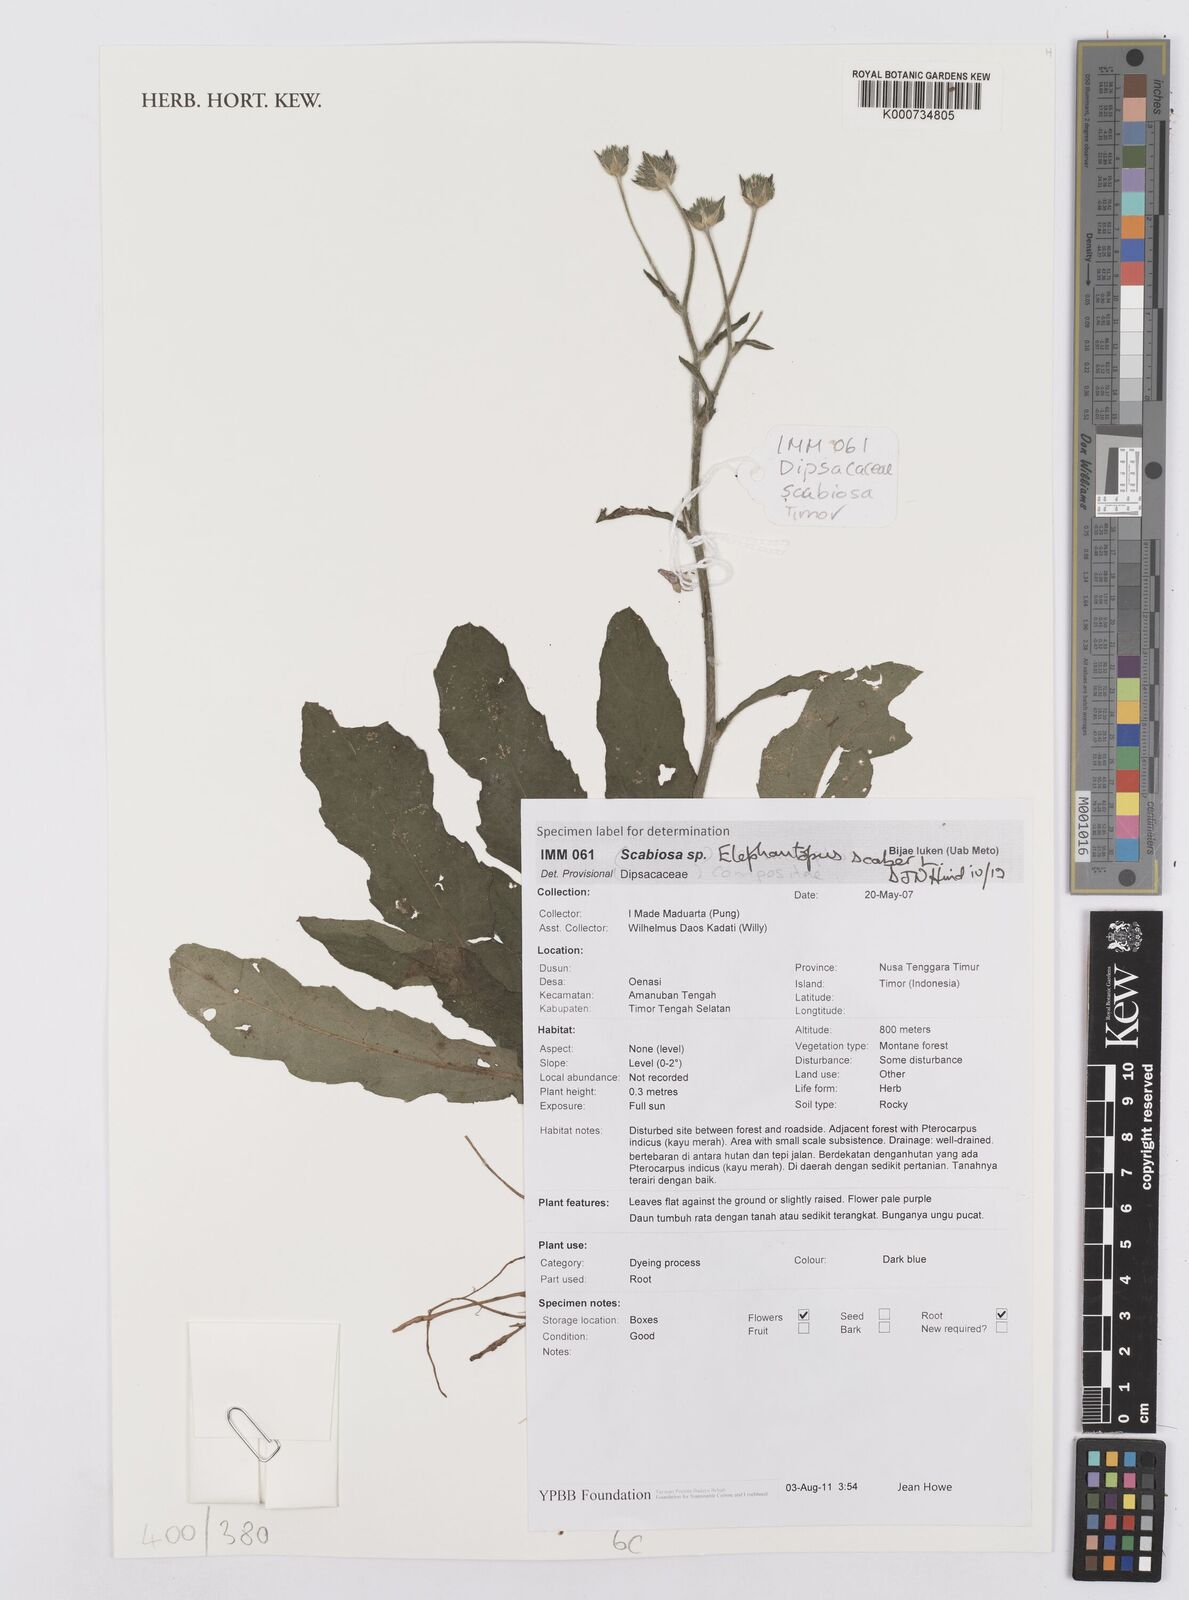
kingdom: Plantae
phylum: Tracheophyta
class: Magnoliopsida
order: Asterales
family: Asteraceae
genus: Elephantopus
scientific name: Elephantopus scaber
